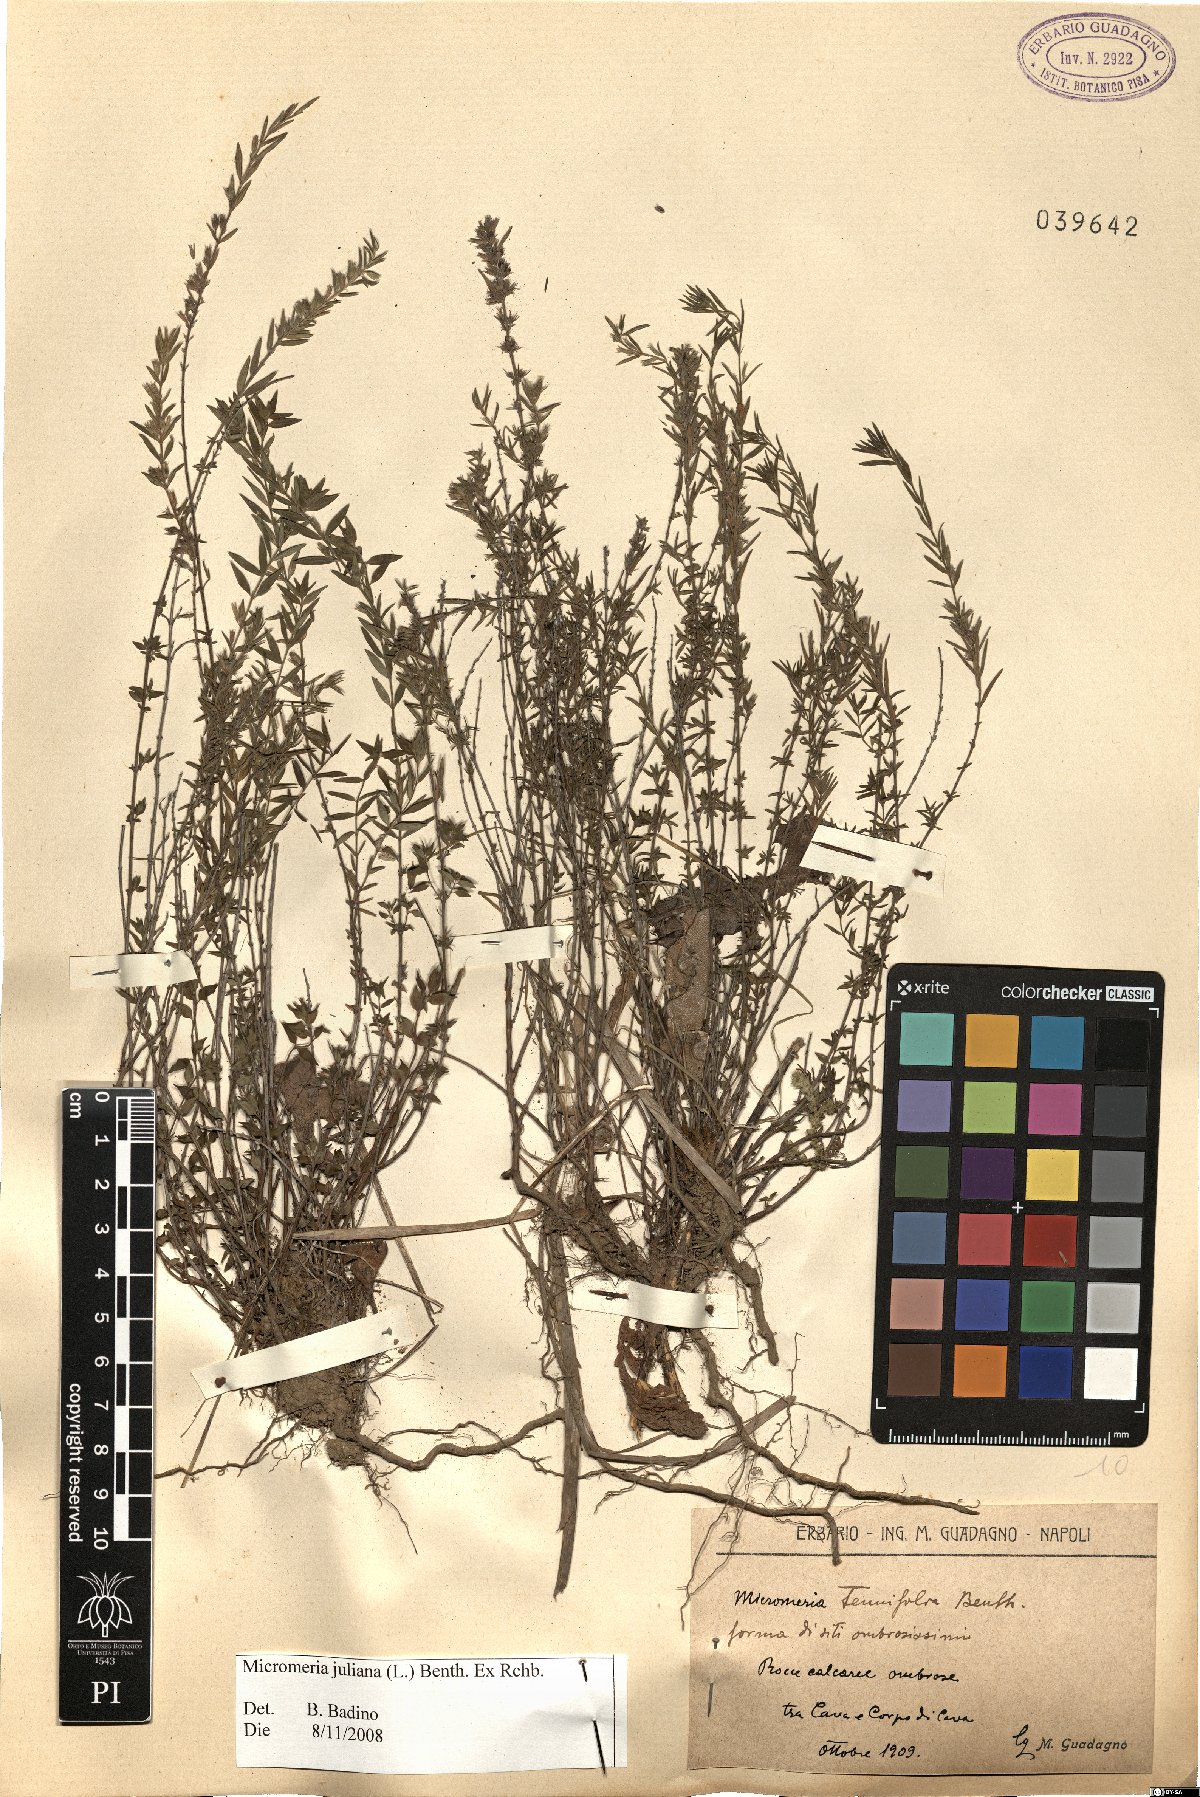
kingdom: Plantae
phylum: Tracheophyta
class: Magnoliopsida
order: Lamiales
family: Lamiaceae
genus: Micromeria
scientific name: Micromeria juliana
